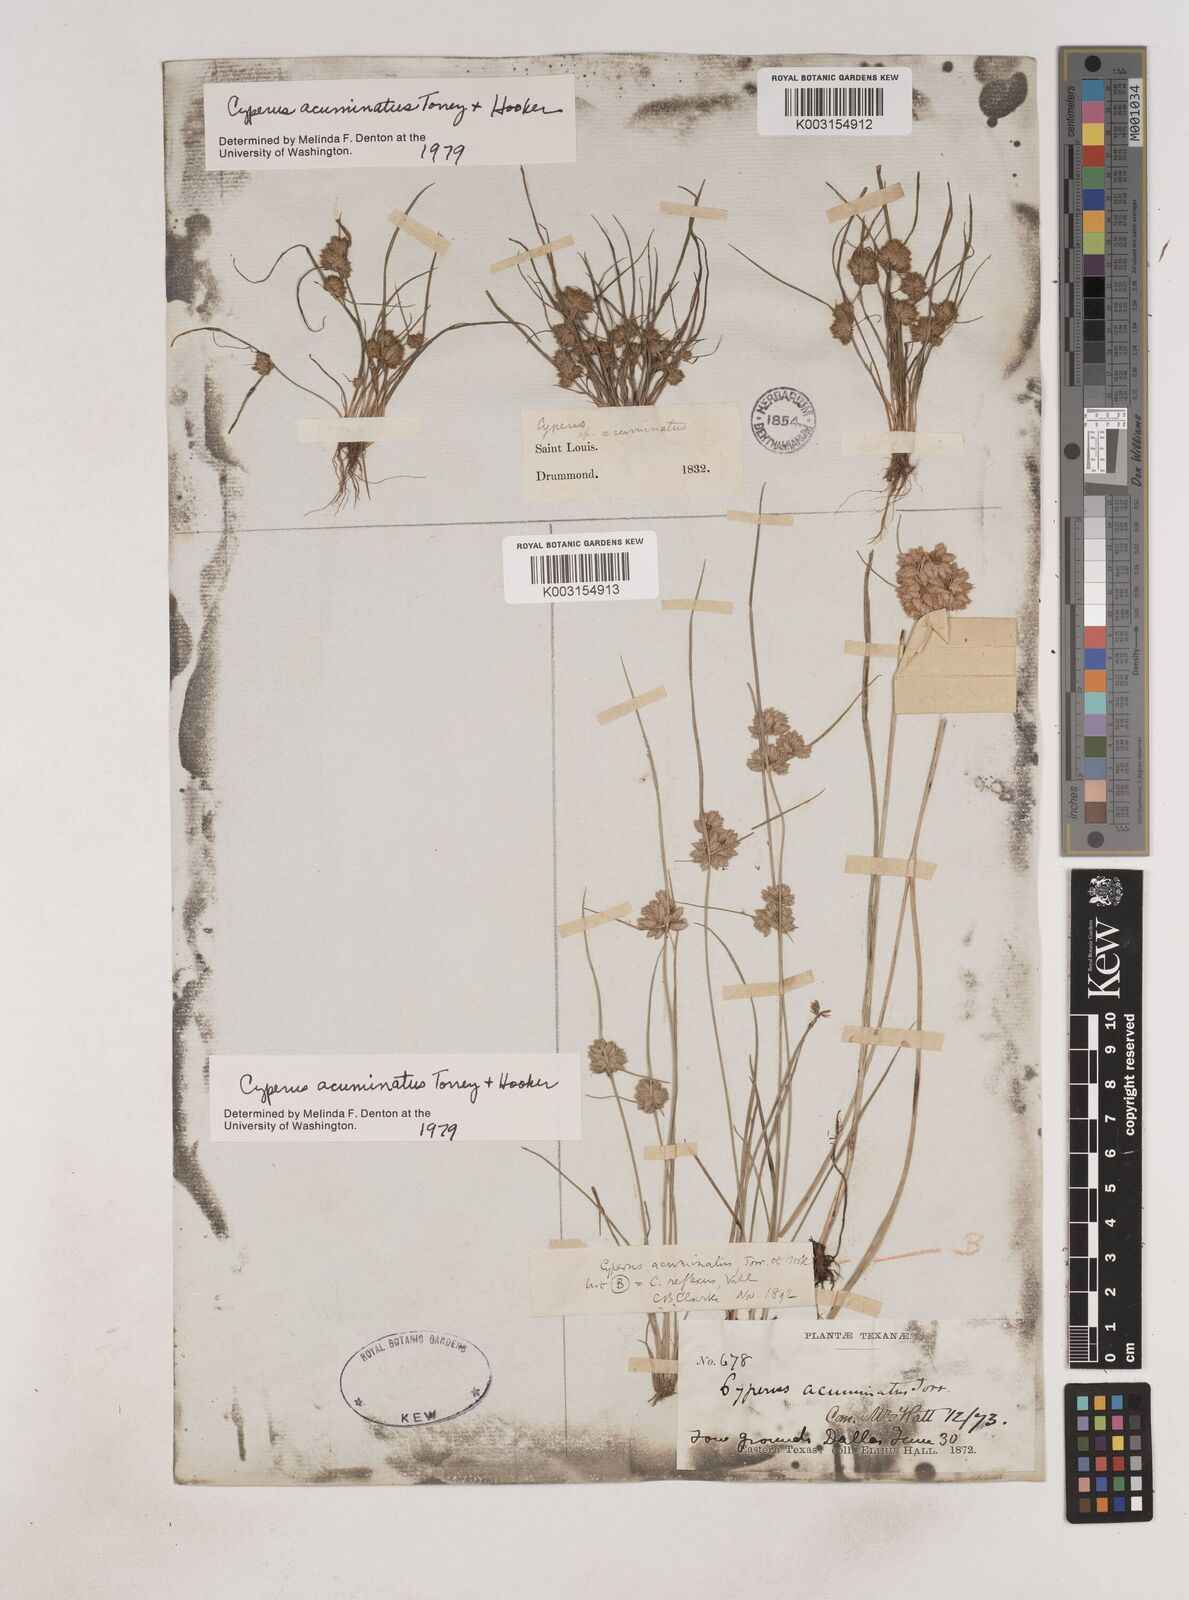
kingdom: Plantae
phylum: Tracheophyta
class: Liliopsida
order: Poales
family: Cyperaceae
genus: Cyperus
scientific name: Cyperus acuminatus
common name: Short-pointed cyperus
